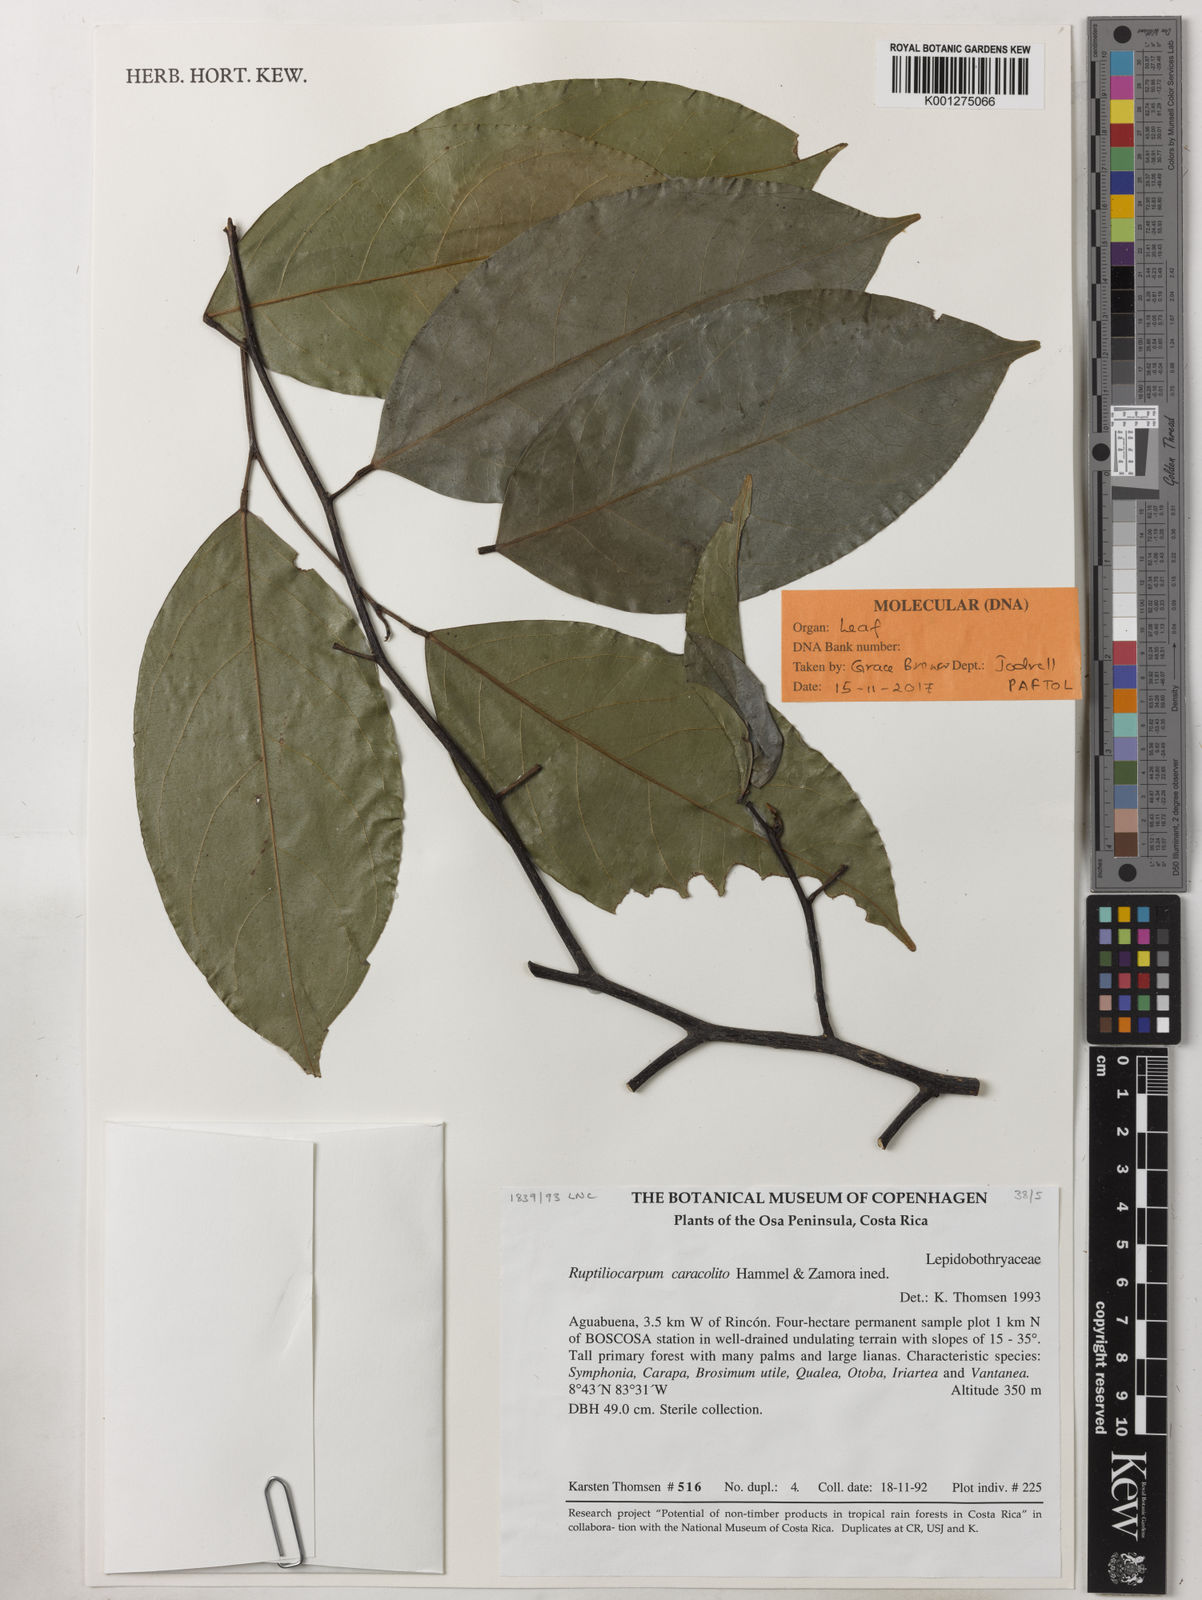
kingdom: Plantae
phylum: Tracheophyta
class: Magnoliopsida
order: Celastrales
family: Lepidobotryaceae
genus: Ruptiliocarpon
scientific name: Ruptiliocarpon caracolito
